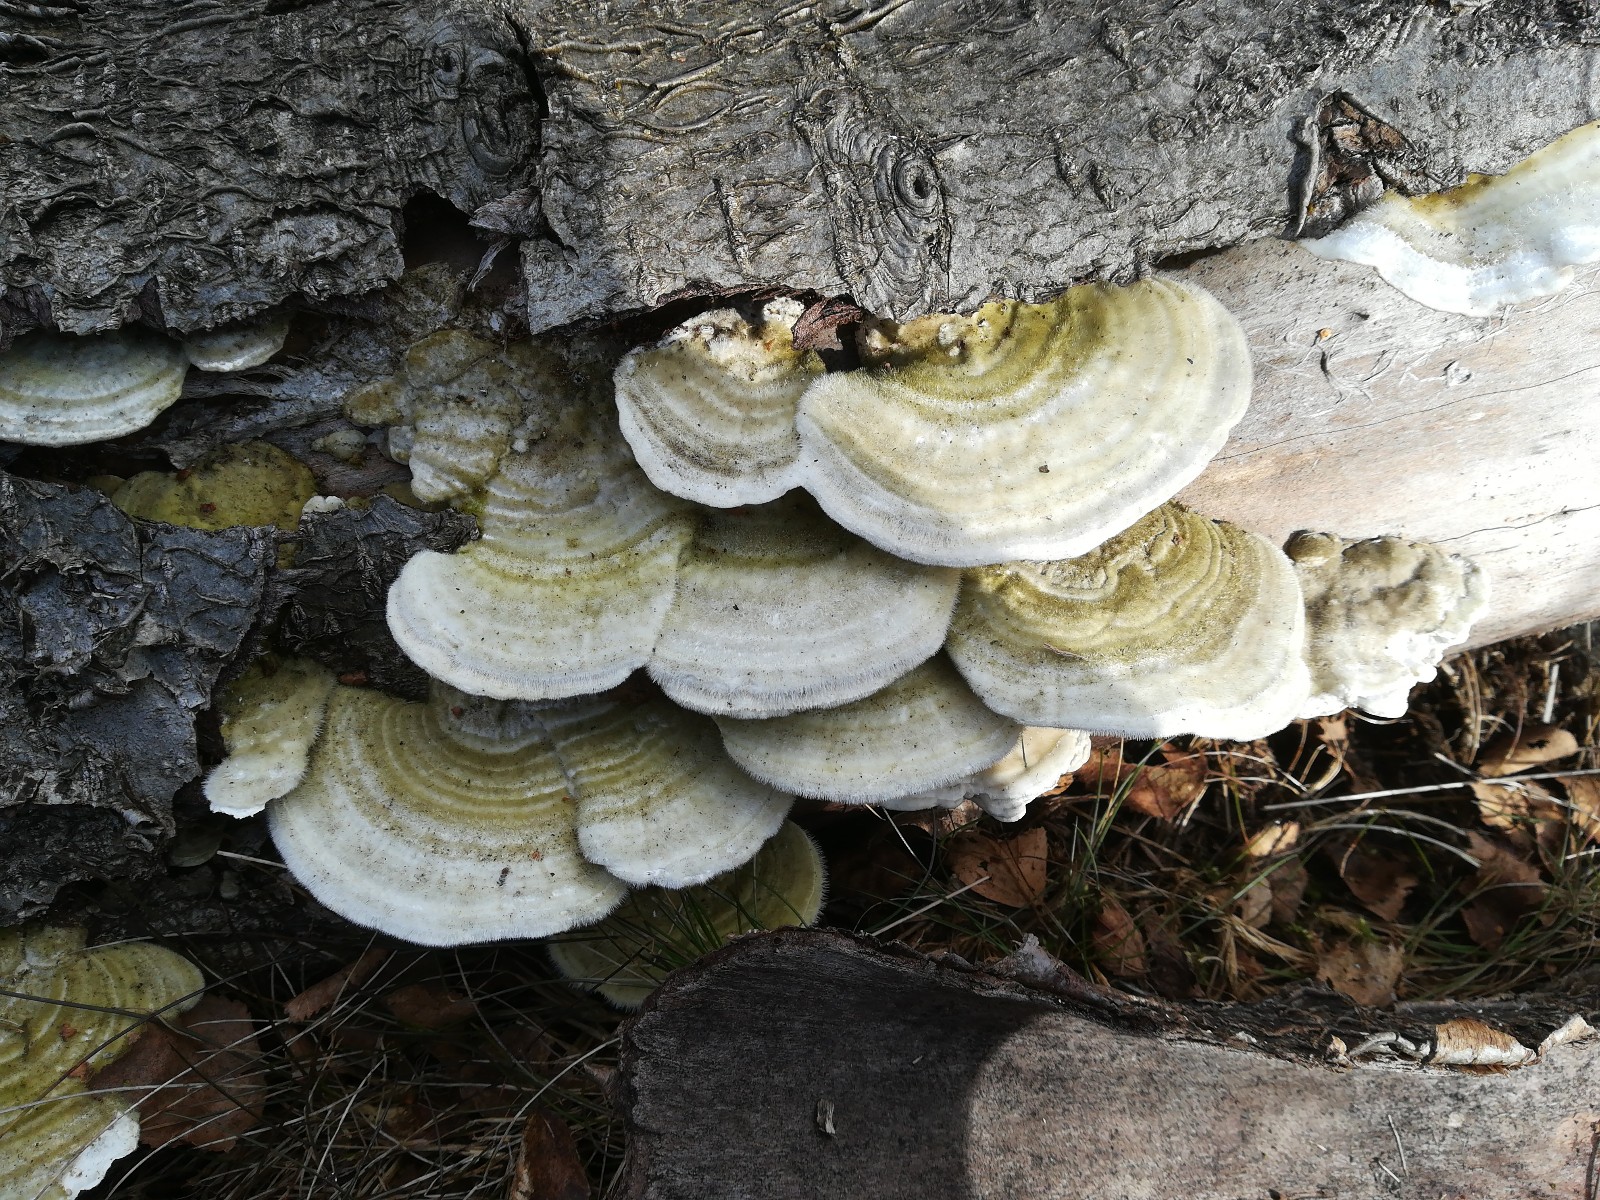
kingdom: Fungi
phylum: Basidiomycota
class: Agaricomycetes
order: Polyporales
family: Polyporaceae
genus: Trametes
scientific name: Trametes hirsuta
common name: håret læderporesvamp
